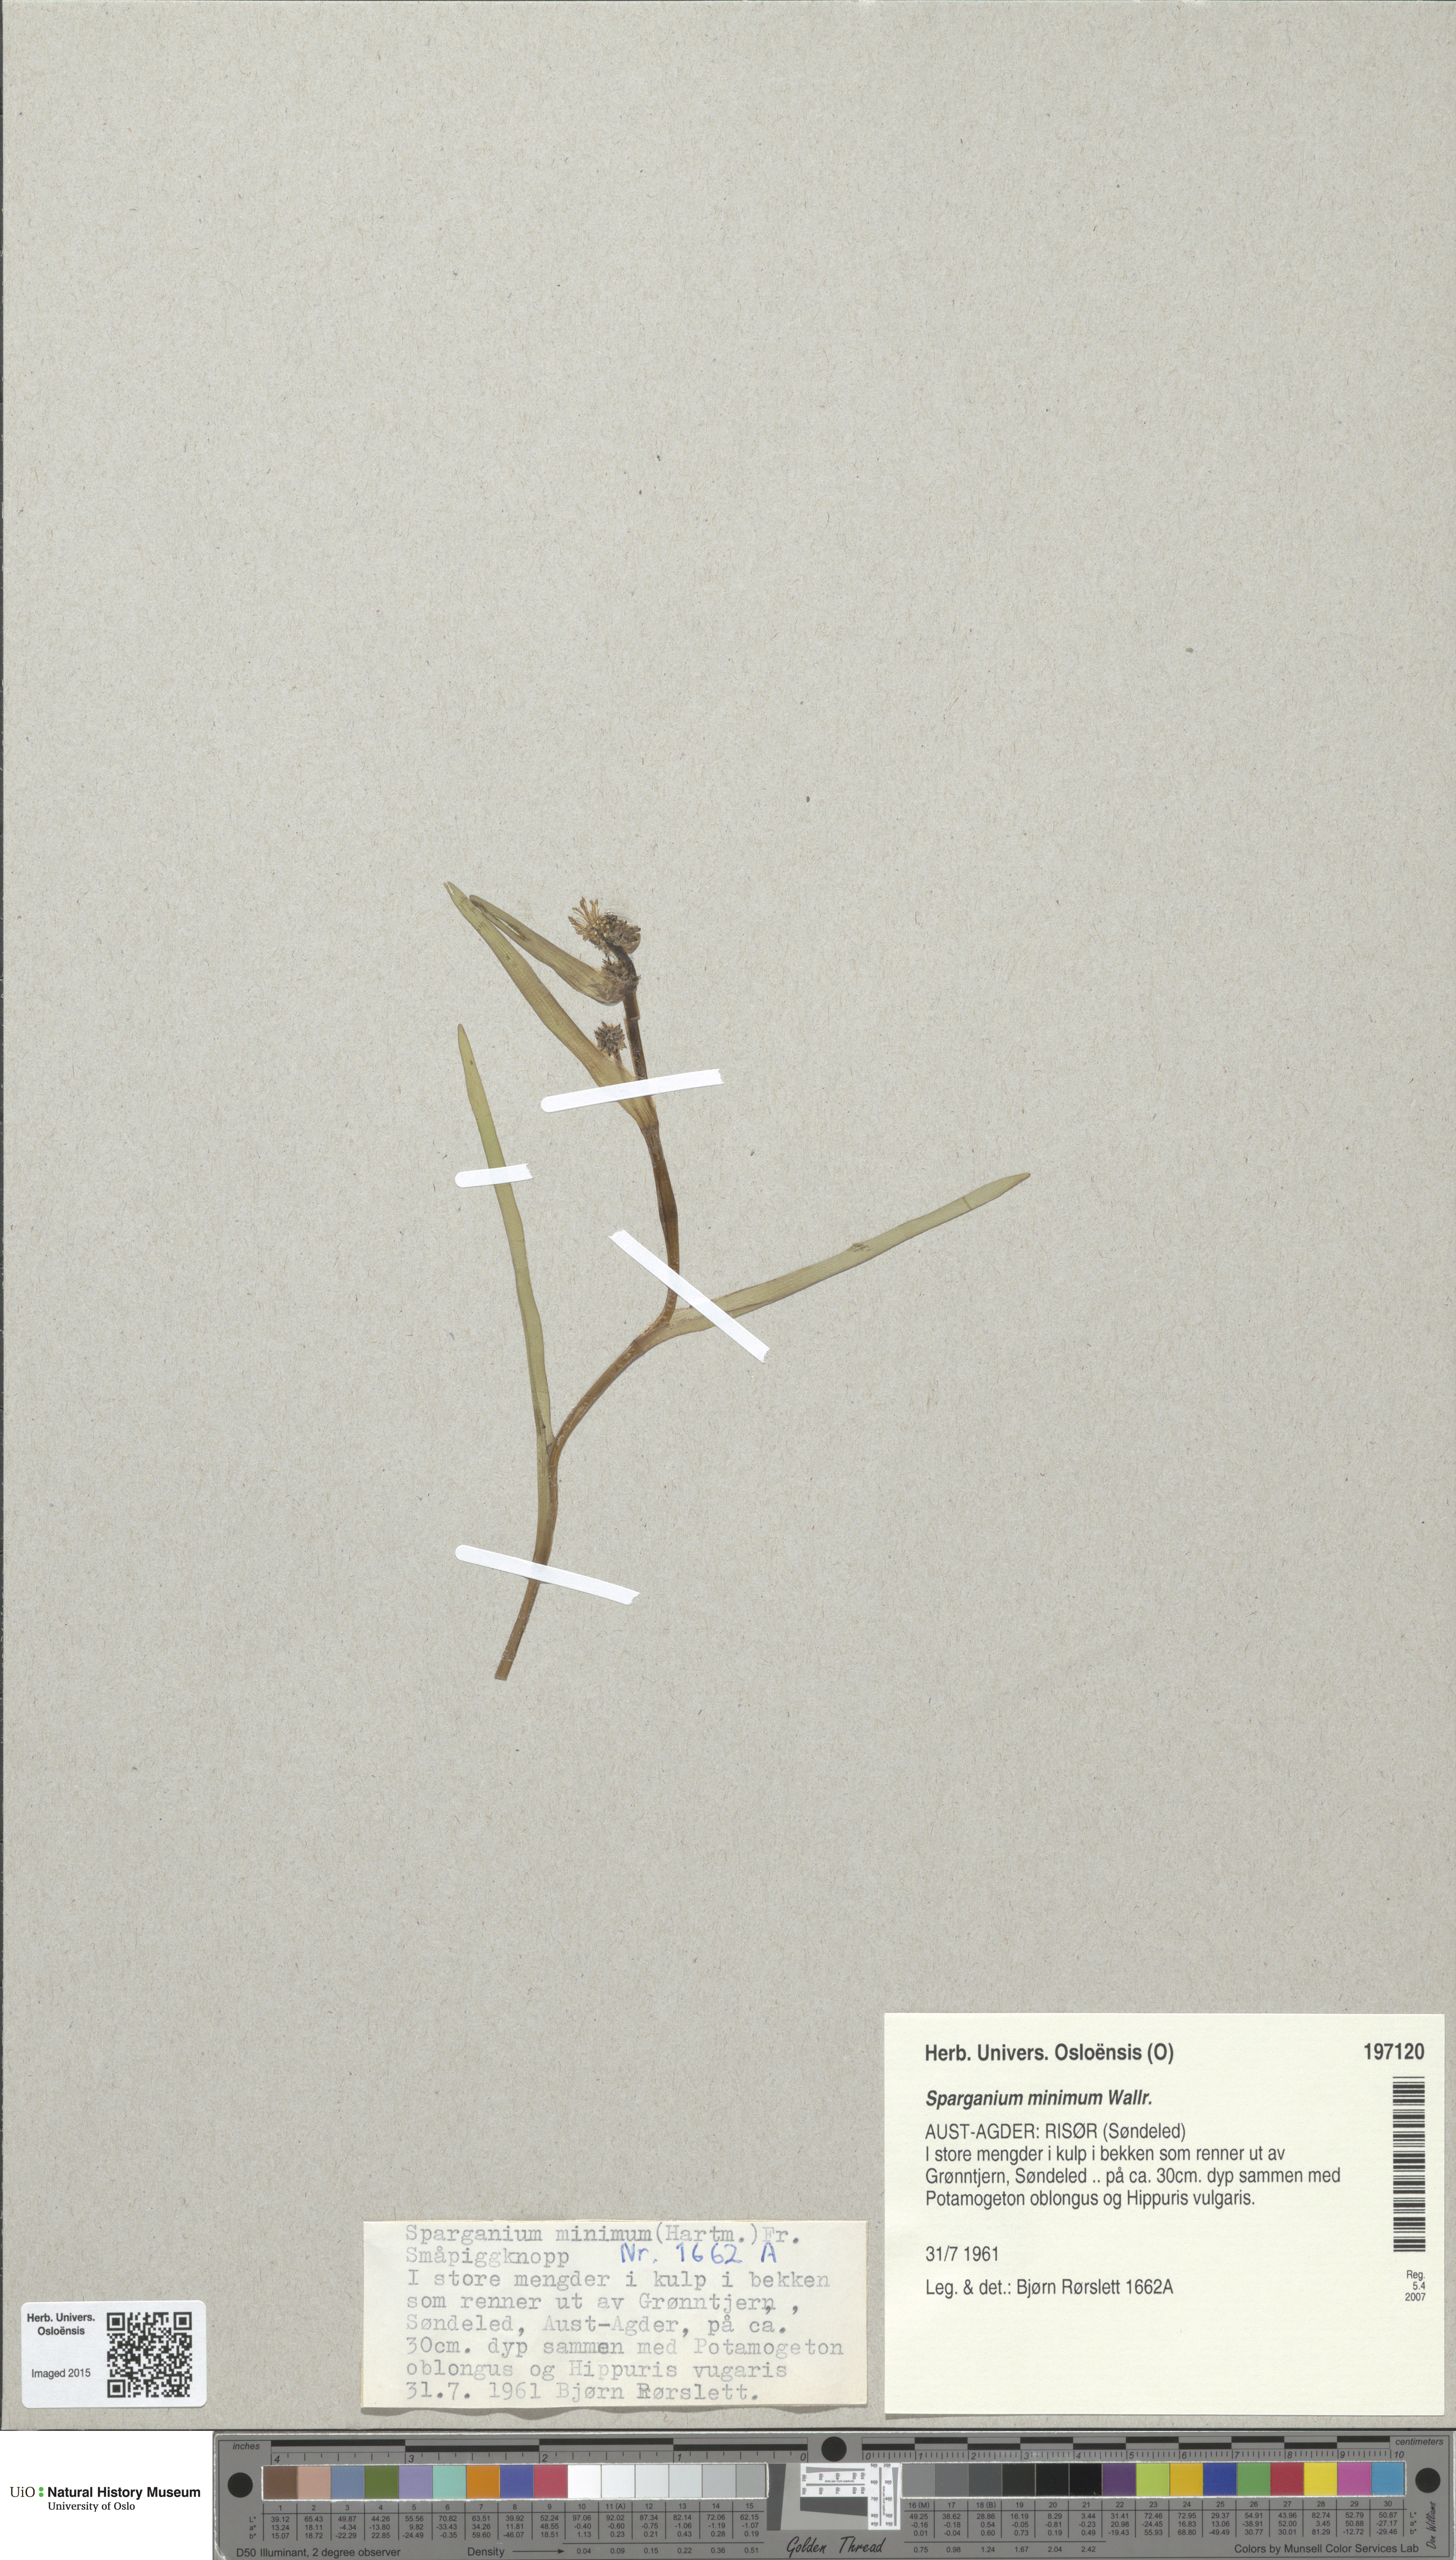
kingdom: Plantae
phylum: Tracheophyta
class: Liliopsida
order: Poales
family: Typhaceae
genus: Sparganium
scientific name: Sparganium natans
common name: Least bur-reed
